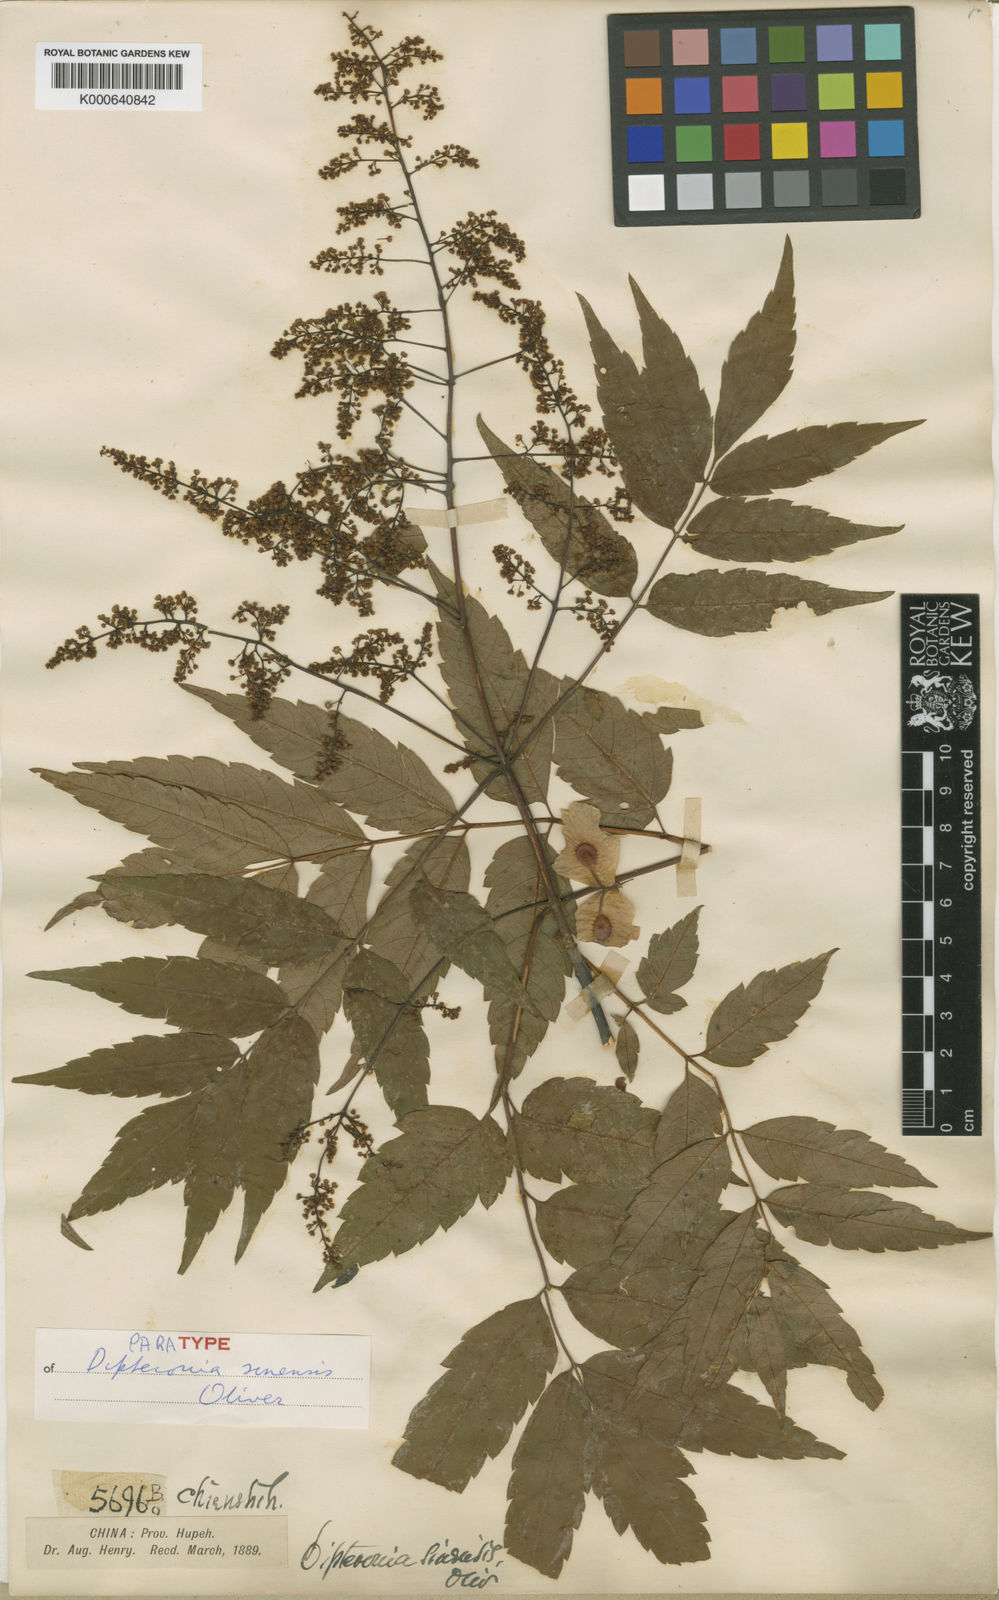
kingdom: Plantae
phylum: Tracheophyta
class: Magnoliopsida
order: Sapindales
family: Sapindaceae
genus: Dipteronia
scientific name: Dipteronia dyeriana
